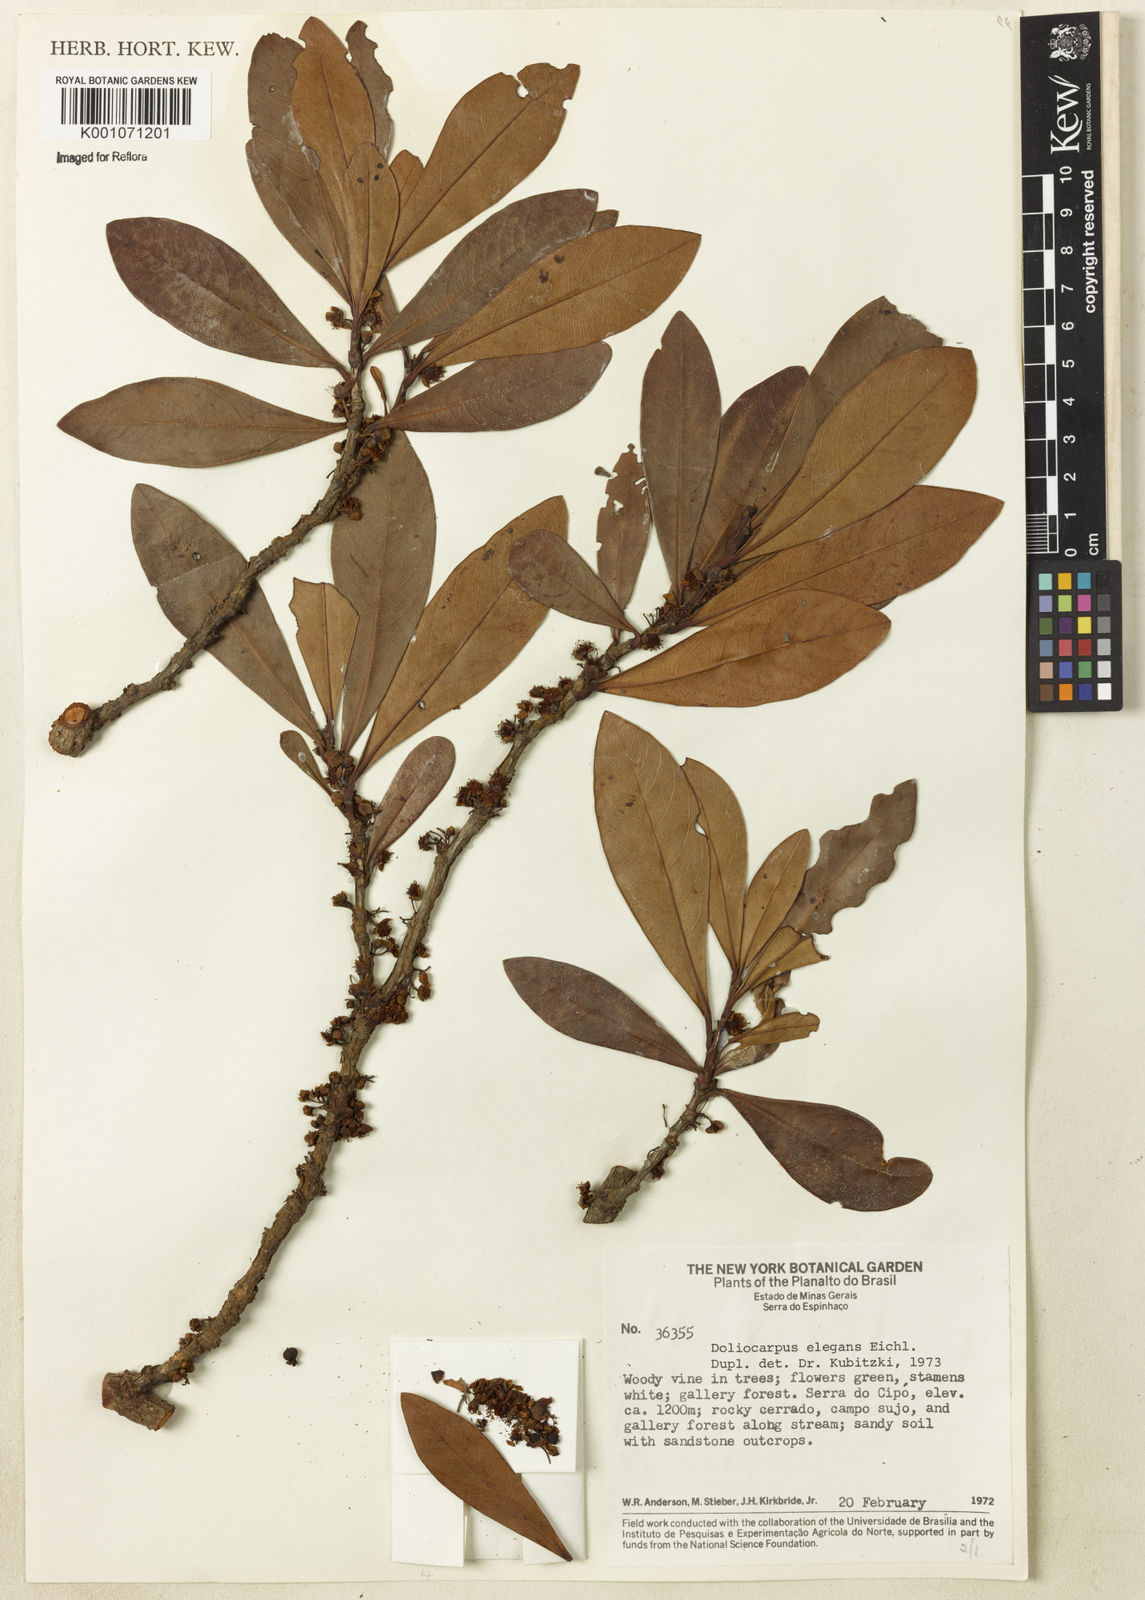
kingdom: Plantae
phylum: Tracheophyta
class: Magnoliopsida
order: Dilleniales
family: Dilleniaceae
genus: Doliocarpus
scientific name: Doliocarpus elegans
